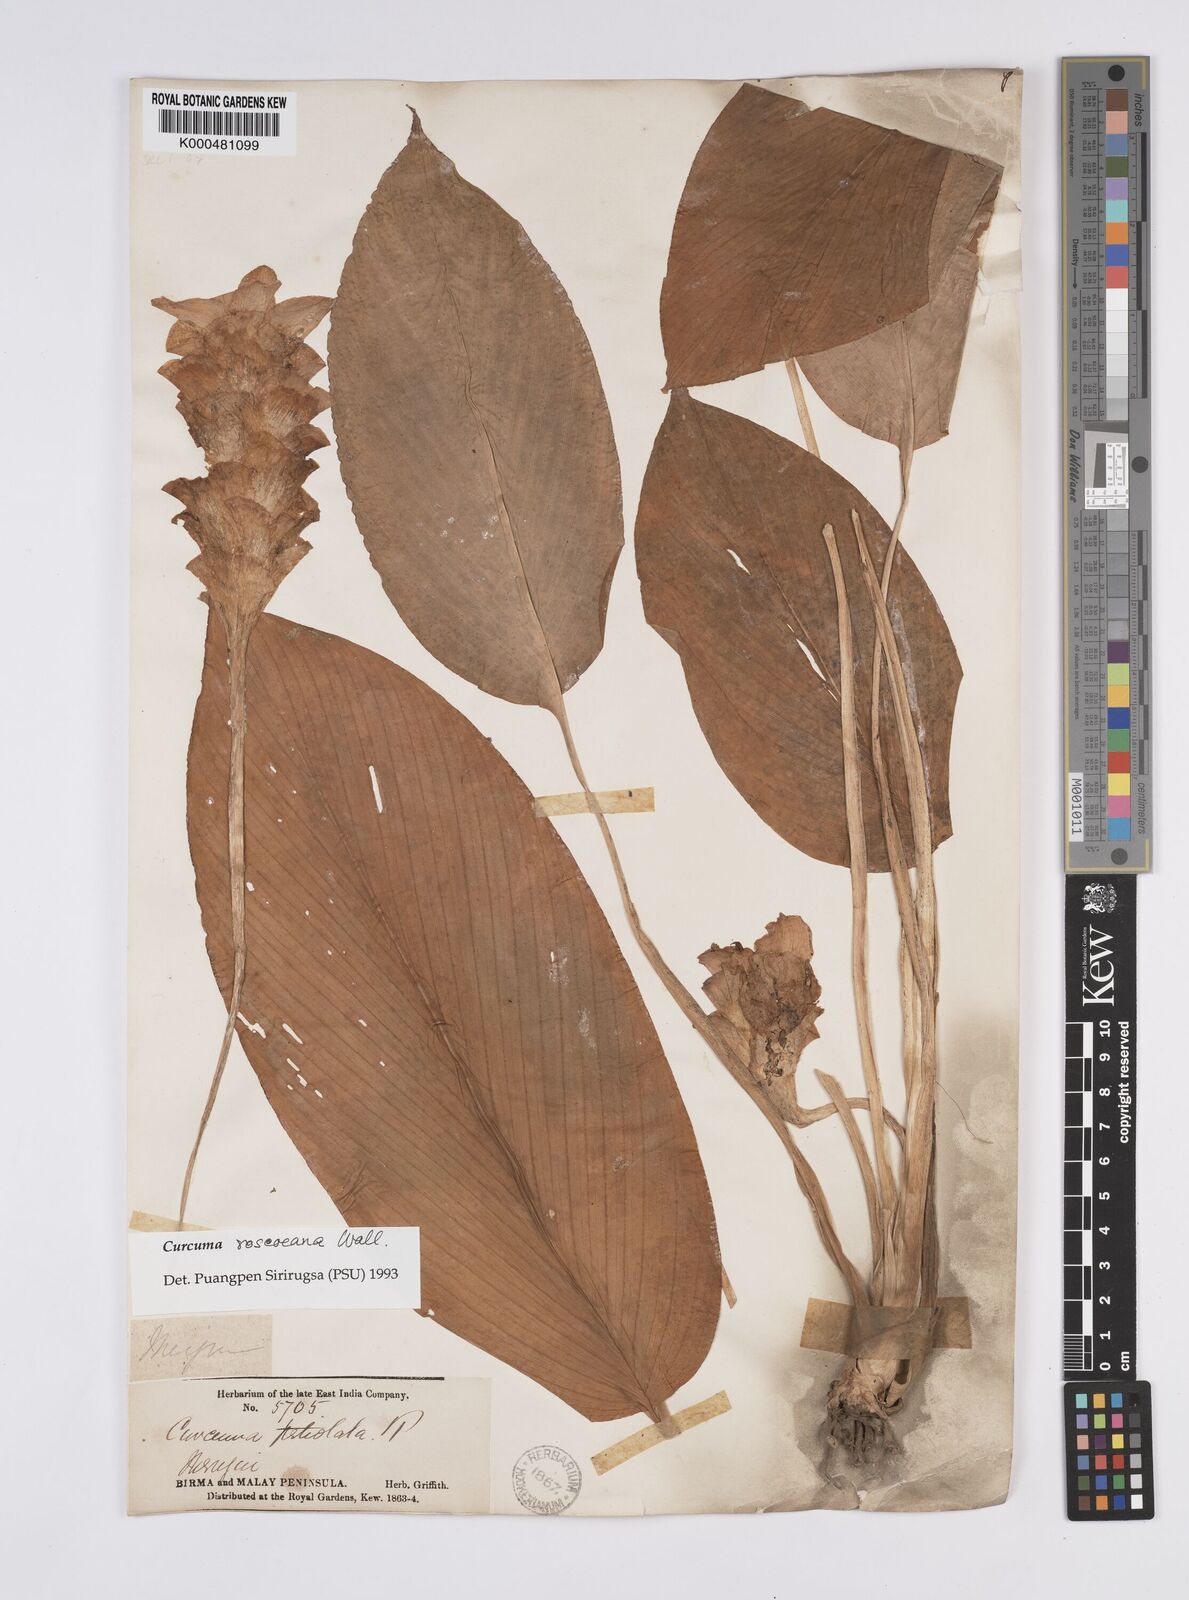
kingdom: Plantae
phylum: Tracheophyta
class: Liliopsida
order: Zingiberales
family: Zingiberaceae
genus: Curcuma
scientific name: Curcuma roscoeana
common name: Jewel of burma
